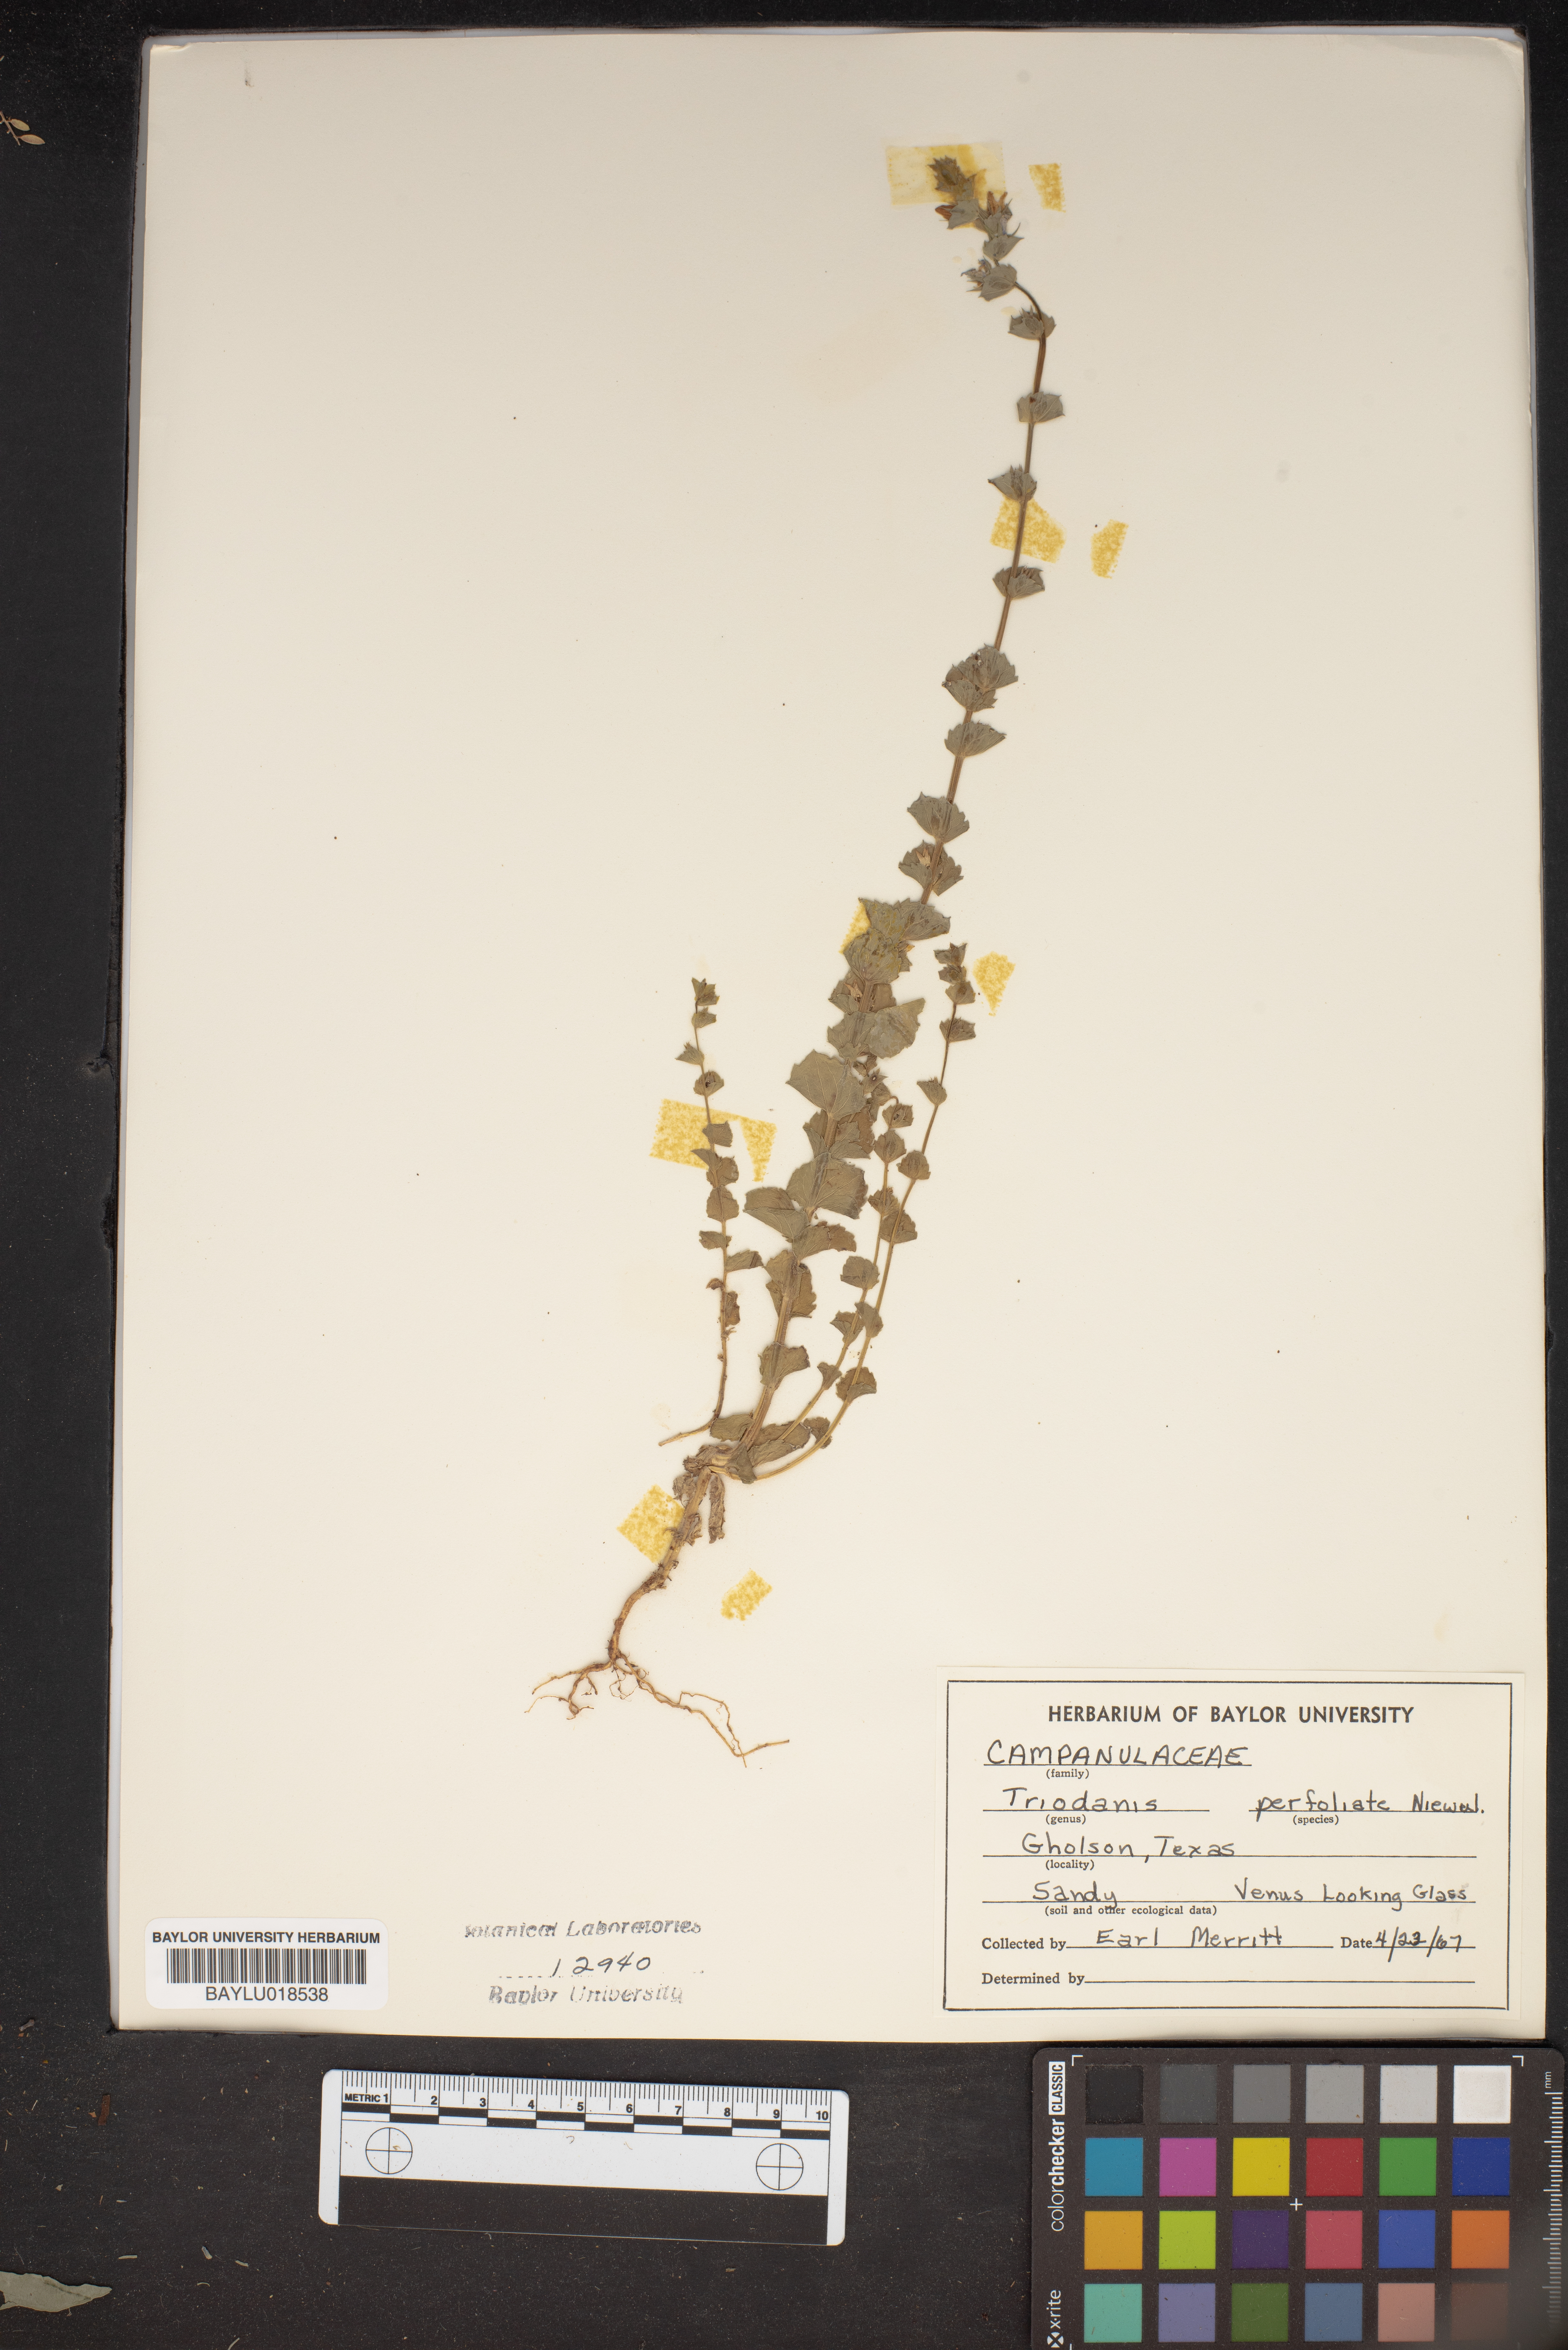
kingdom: Plantae
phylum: Tracheophyta
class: Magnoliopsida
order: Asterales
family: Campanulaceae
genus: Triodanis
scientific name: Triodanis perfoliata
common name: Clasping venus' looking-glass
